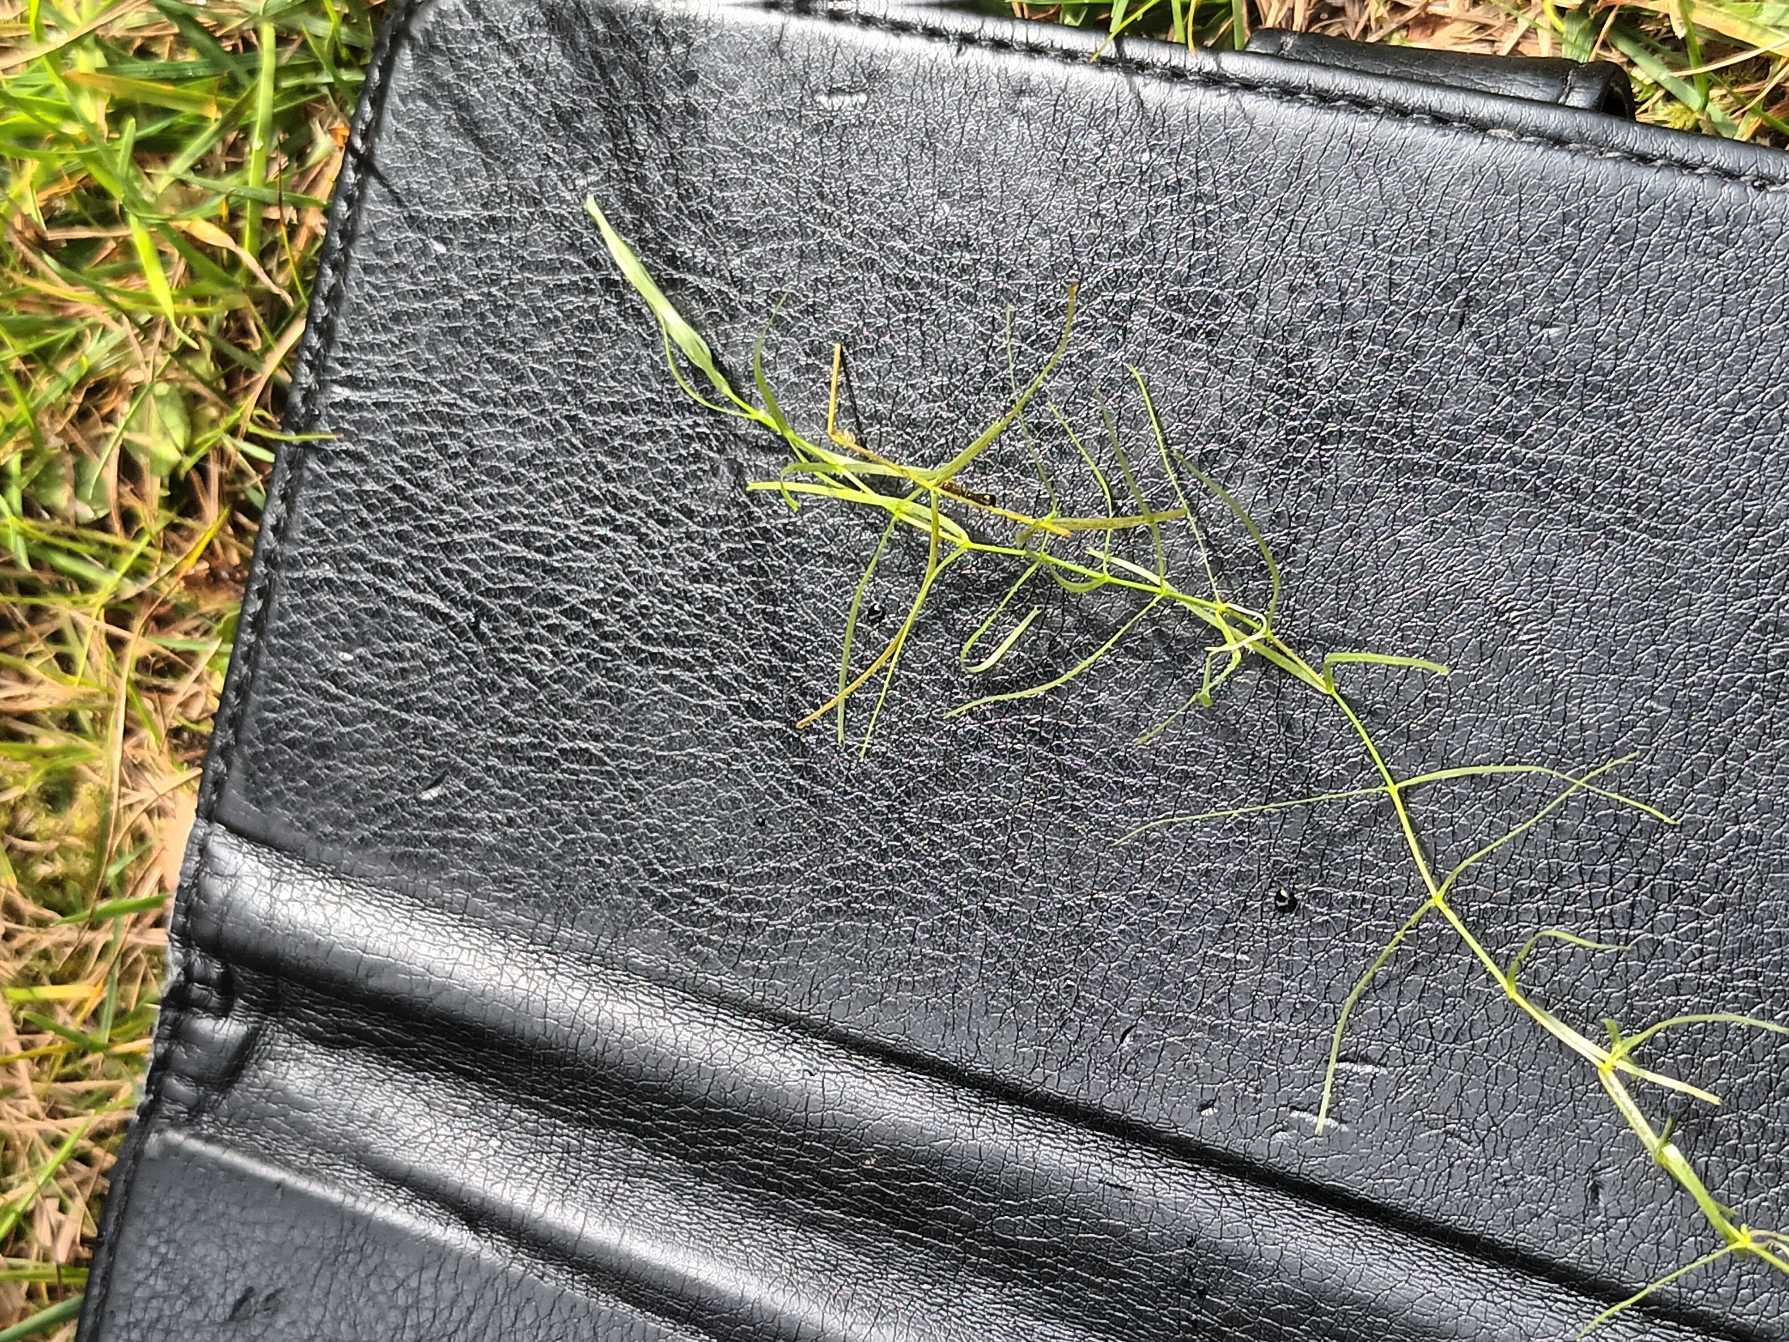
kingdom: Plantae
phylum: Tracheophyta
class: Magnoliopsida
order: Lamiales
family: Plantaginaceae
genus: Callitriche
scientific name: Callitriche hamulata
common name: Smalbladet vandstjerne
